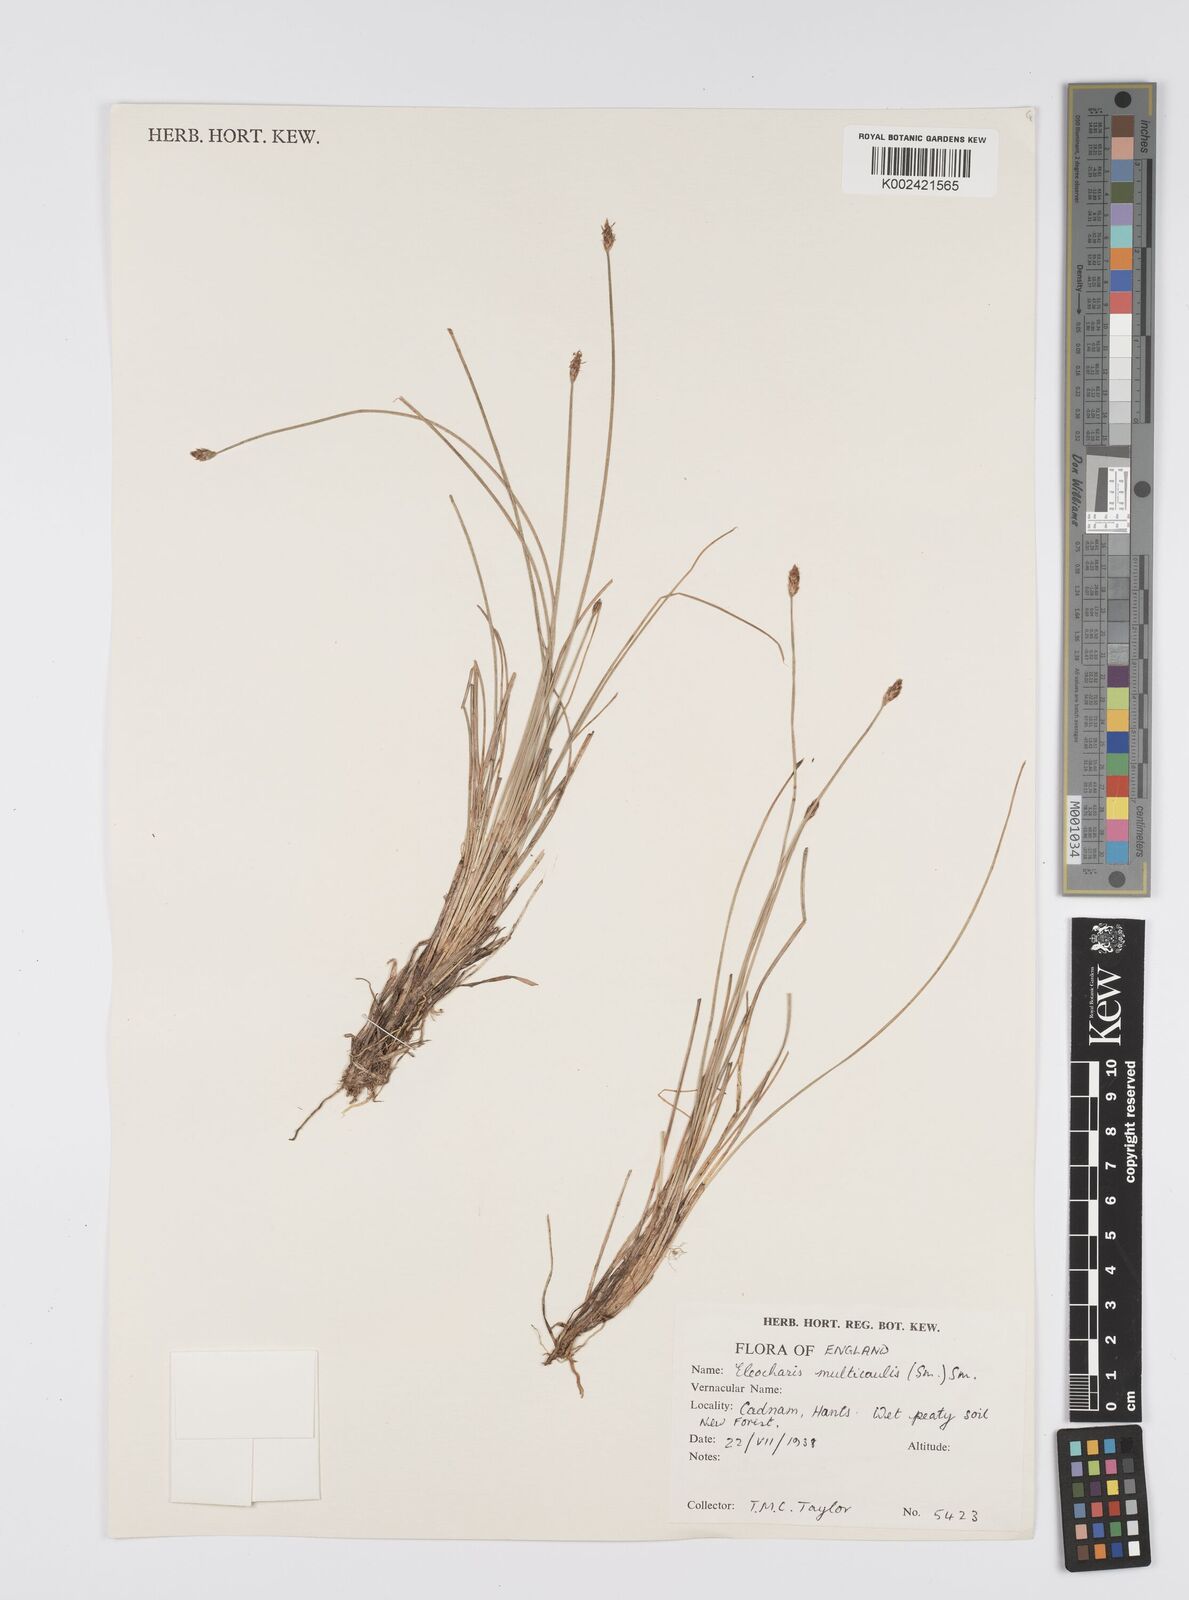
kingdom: Plantae
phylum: Tracheophyta
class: Liliopsida
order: Poales
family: Cyperaceae
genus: Eleocharis
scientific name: Eleocharis multicaulis
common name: Many-stalked spike-rush
